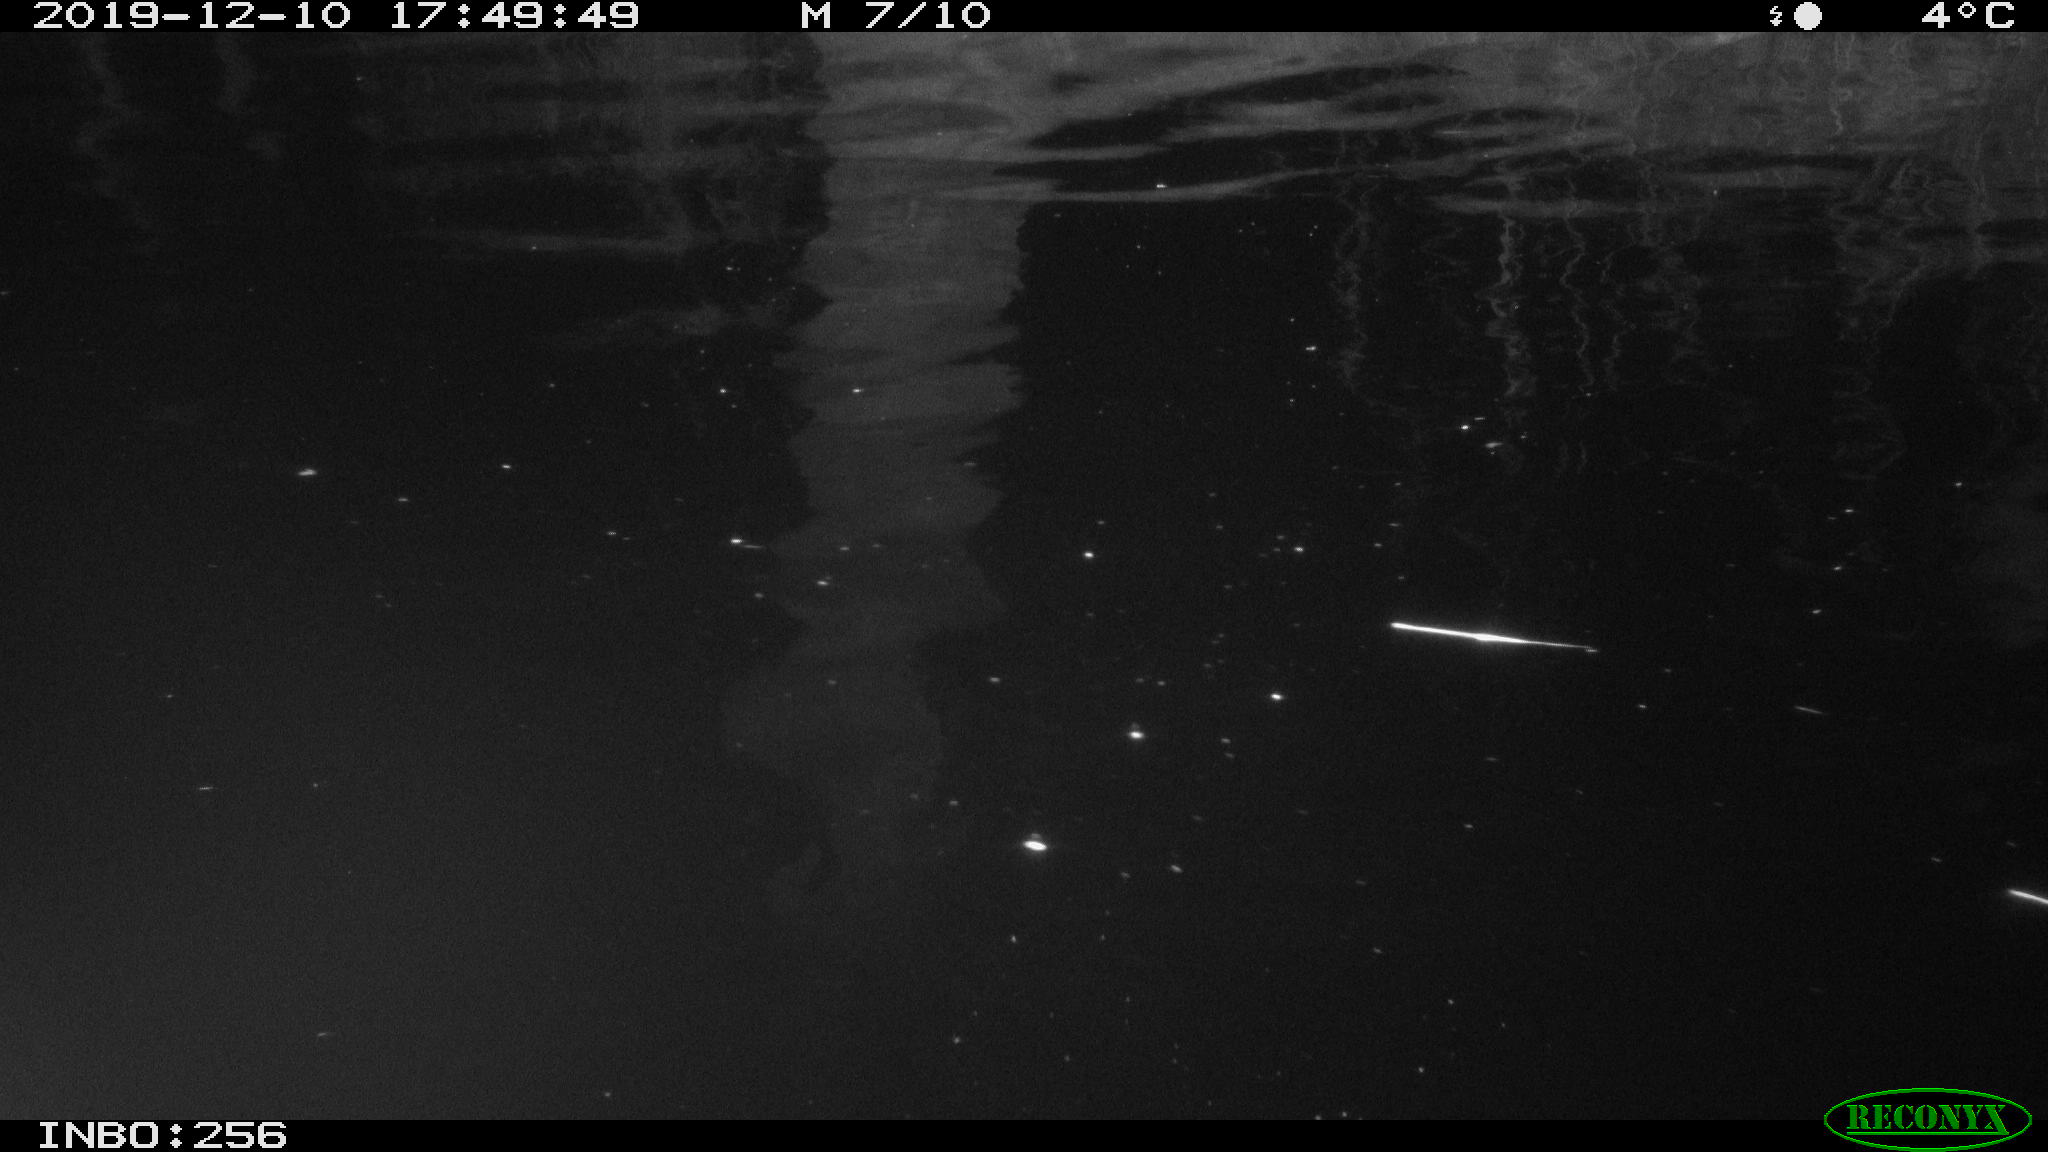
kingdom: Animalia
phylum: Chordata
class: Mammalia
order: Rodentia
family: Cricetidae
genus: Arvicola
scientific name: Arvicola amphibius
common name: European water vole
